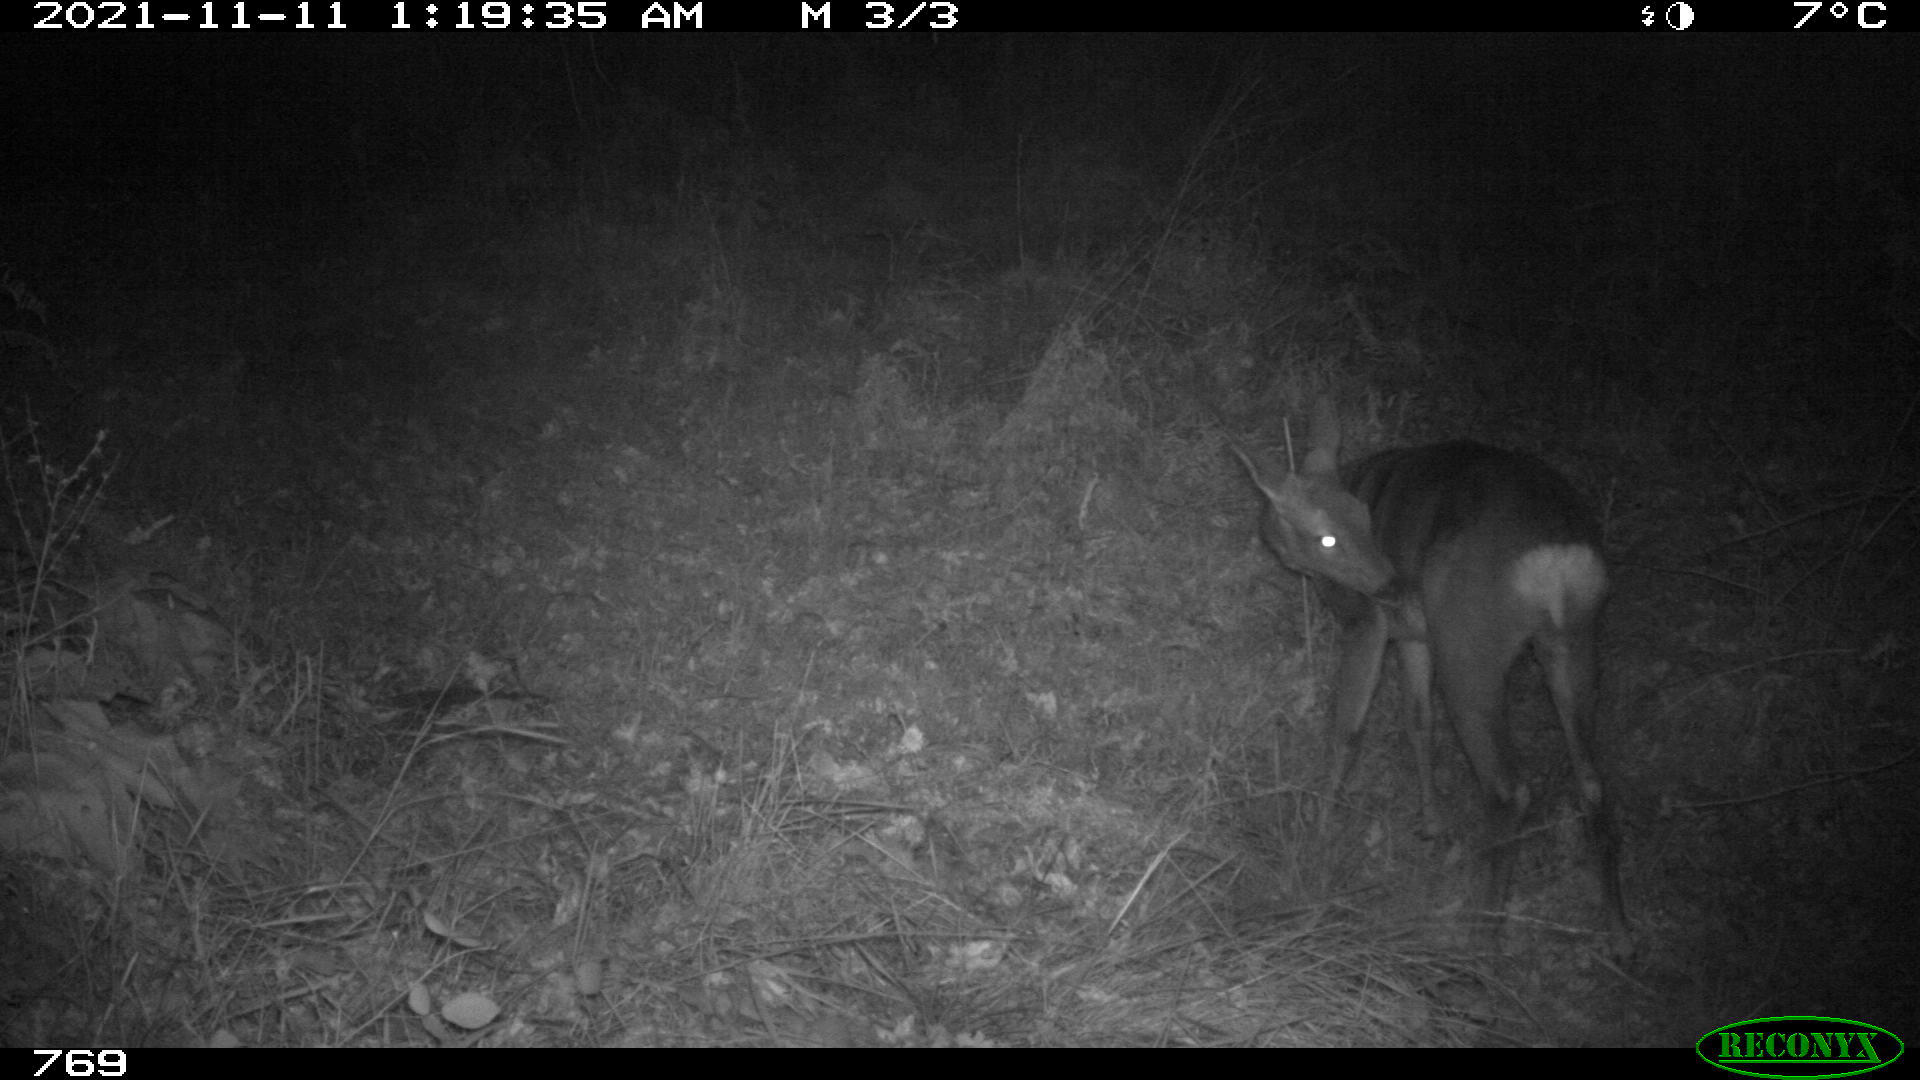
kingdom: Animalia
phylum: Chordata
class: Mammalia
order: Artiodactyla
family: Cervidae
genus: Capreolus
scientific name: Capreolus capreolus
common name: Western roe deer
